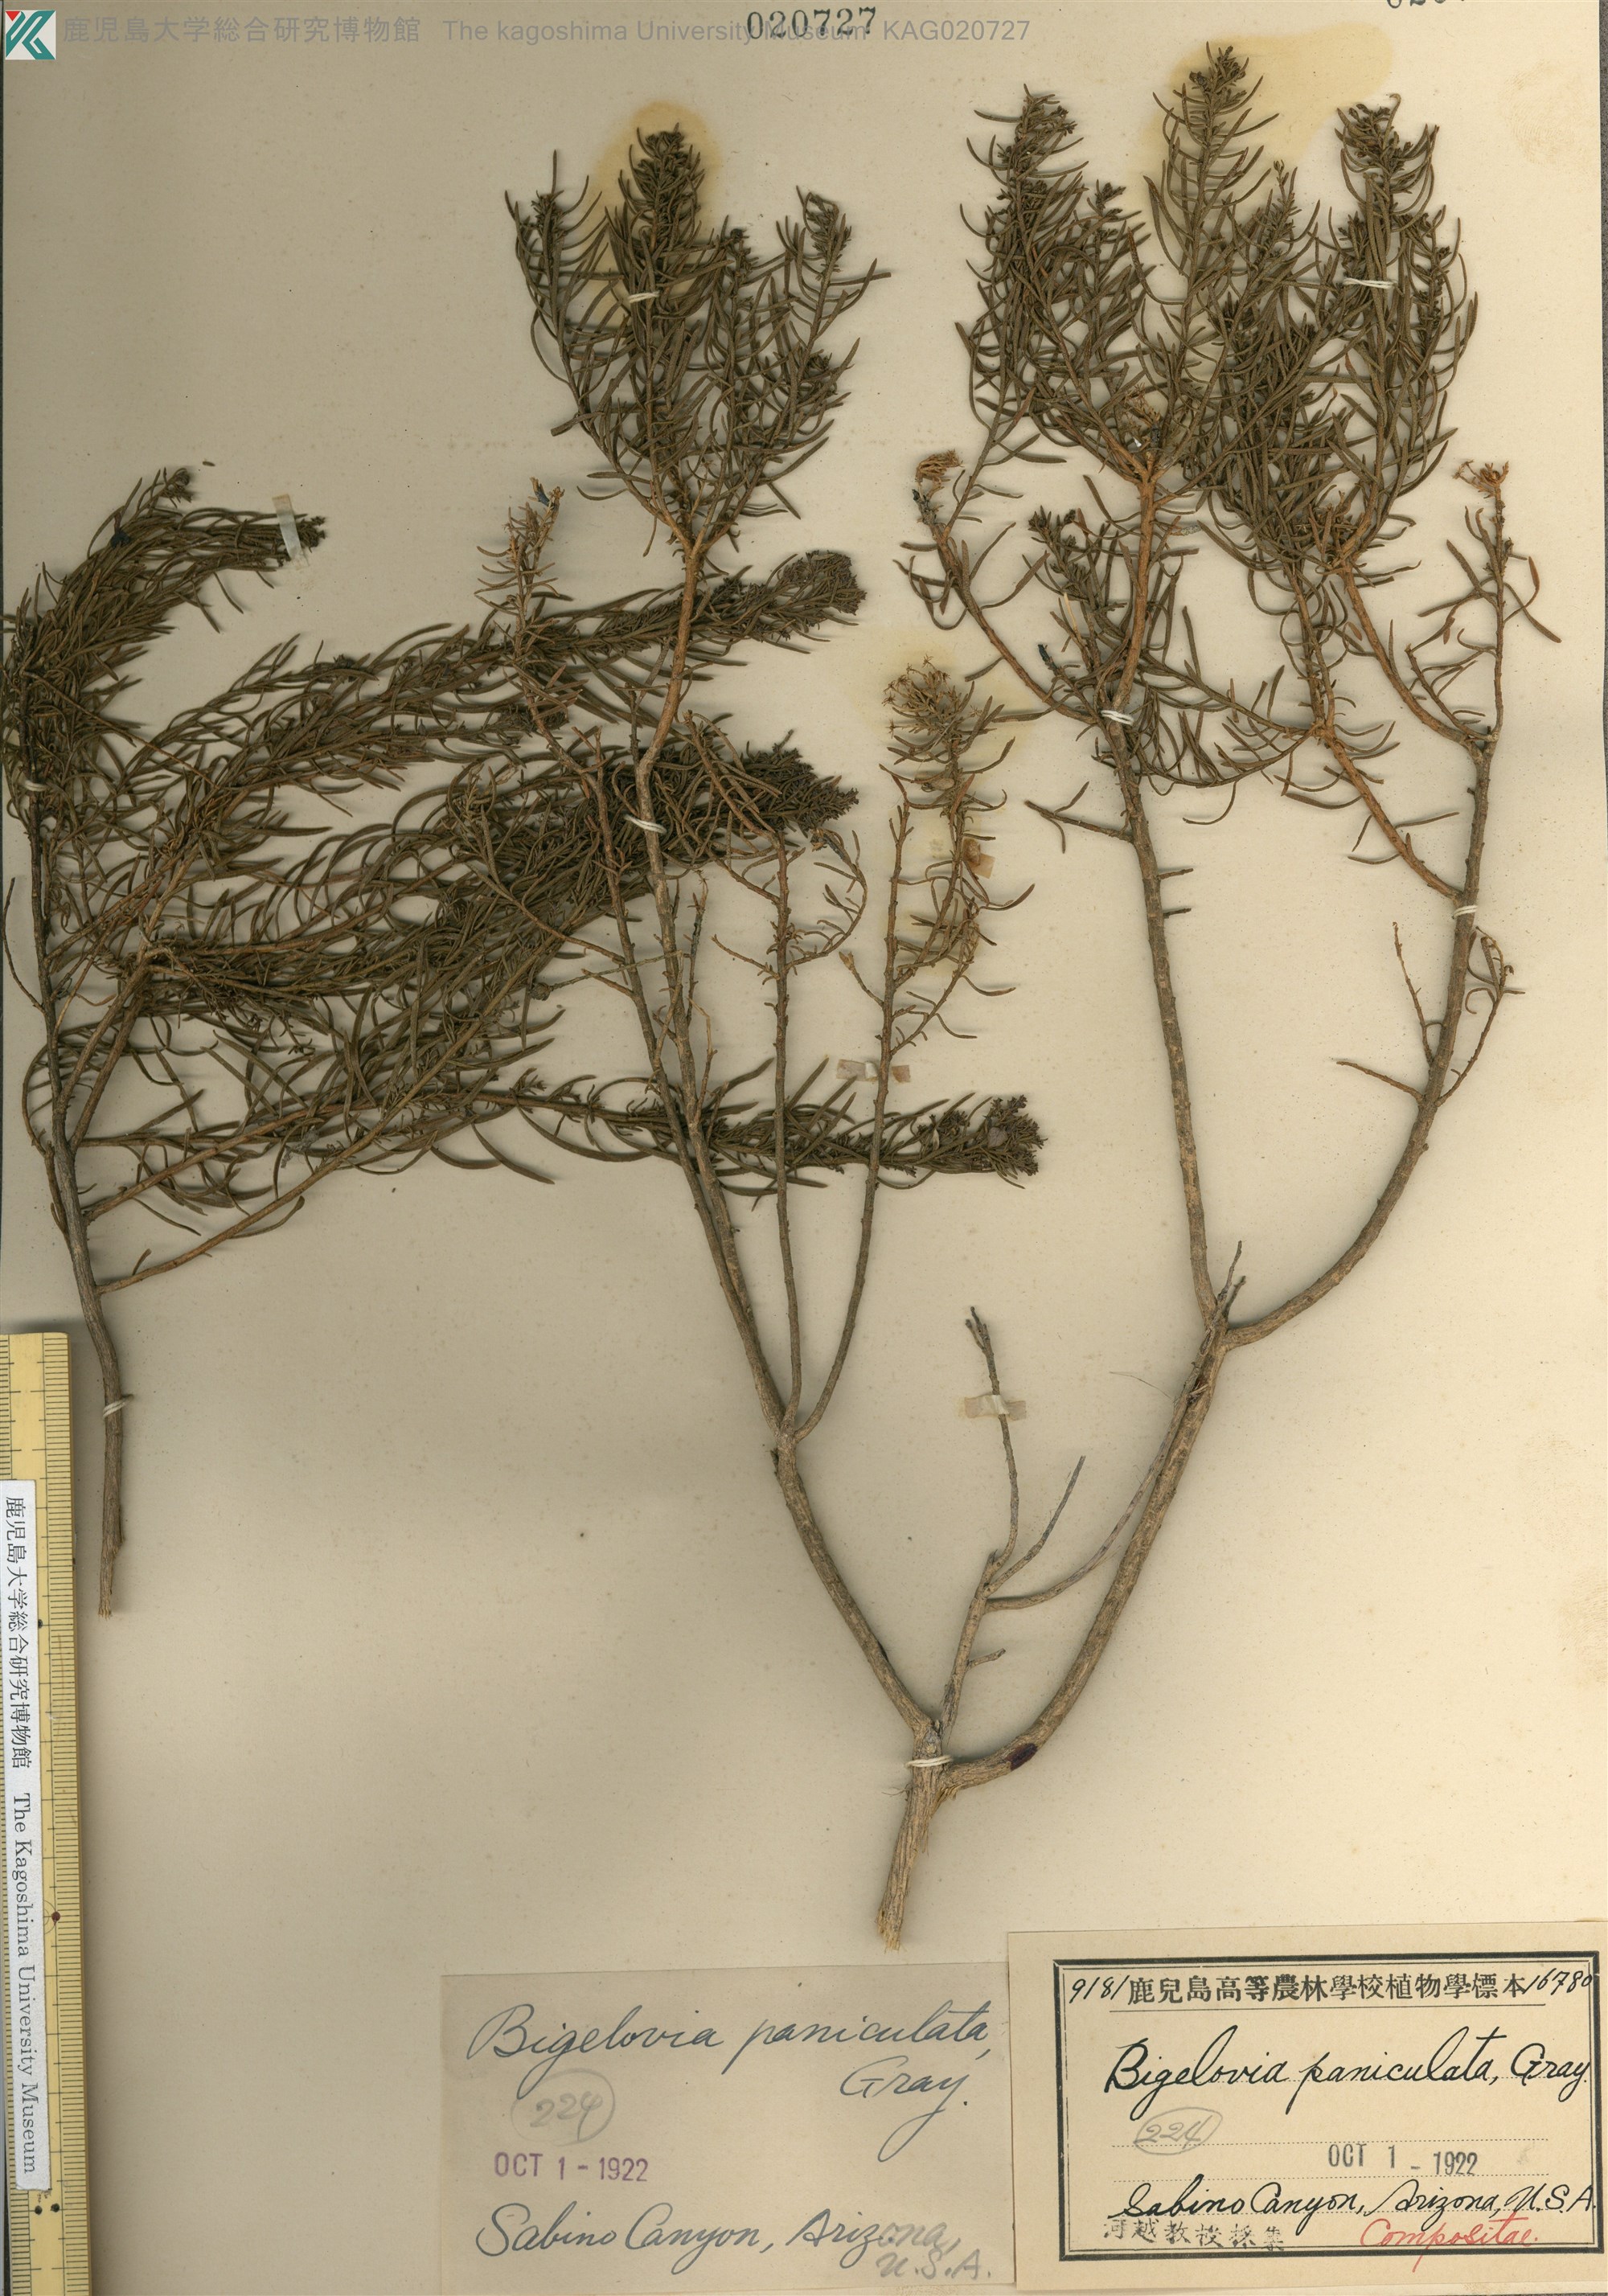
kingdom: Plantae
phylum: Tracheophyta
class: Magnoliopsida
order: Lamiales
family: Oleaceae
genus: Forestiera
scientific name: Forestiera
